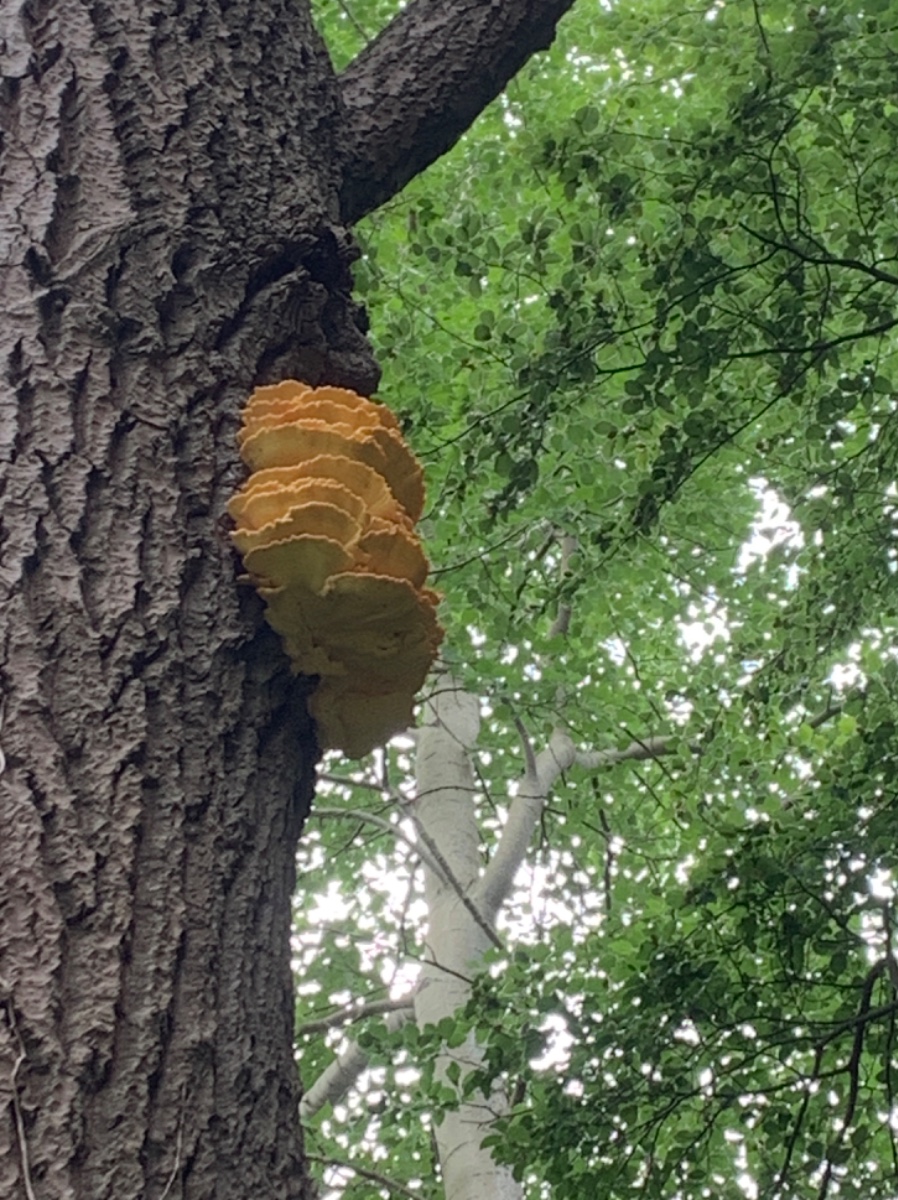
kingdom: Fungi
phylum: Basidiomycota
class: Agaricomycetes
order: Polyporales
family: Laetiporaceae
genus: Laetiporus
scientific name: Laetiporus sulphureus
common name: svovlporesvamp
